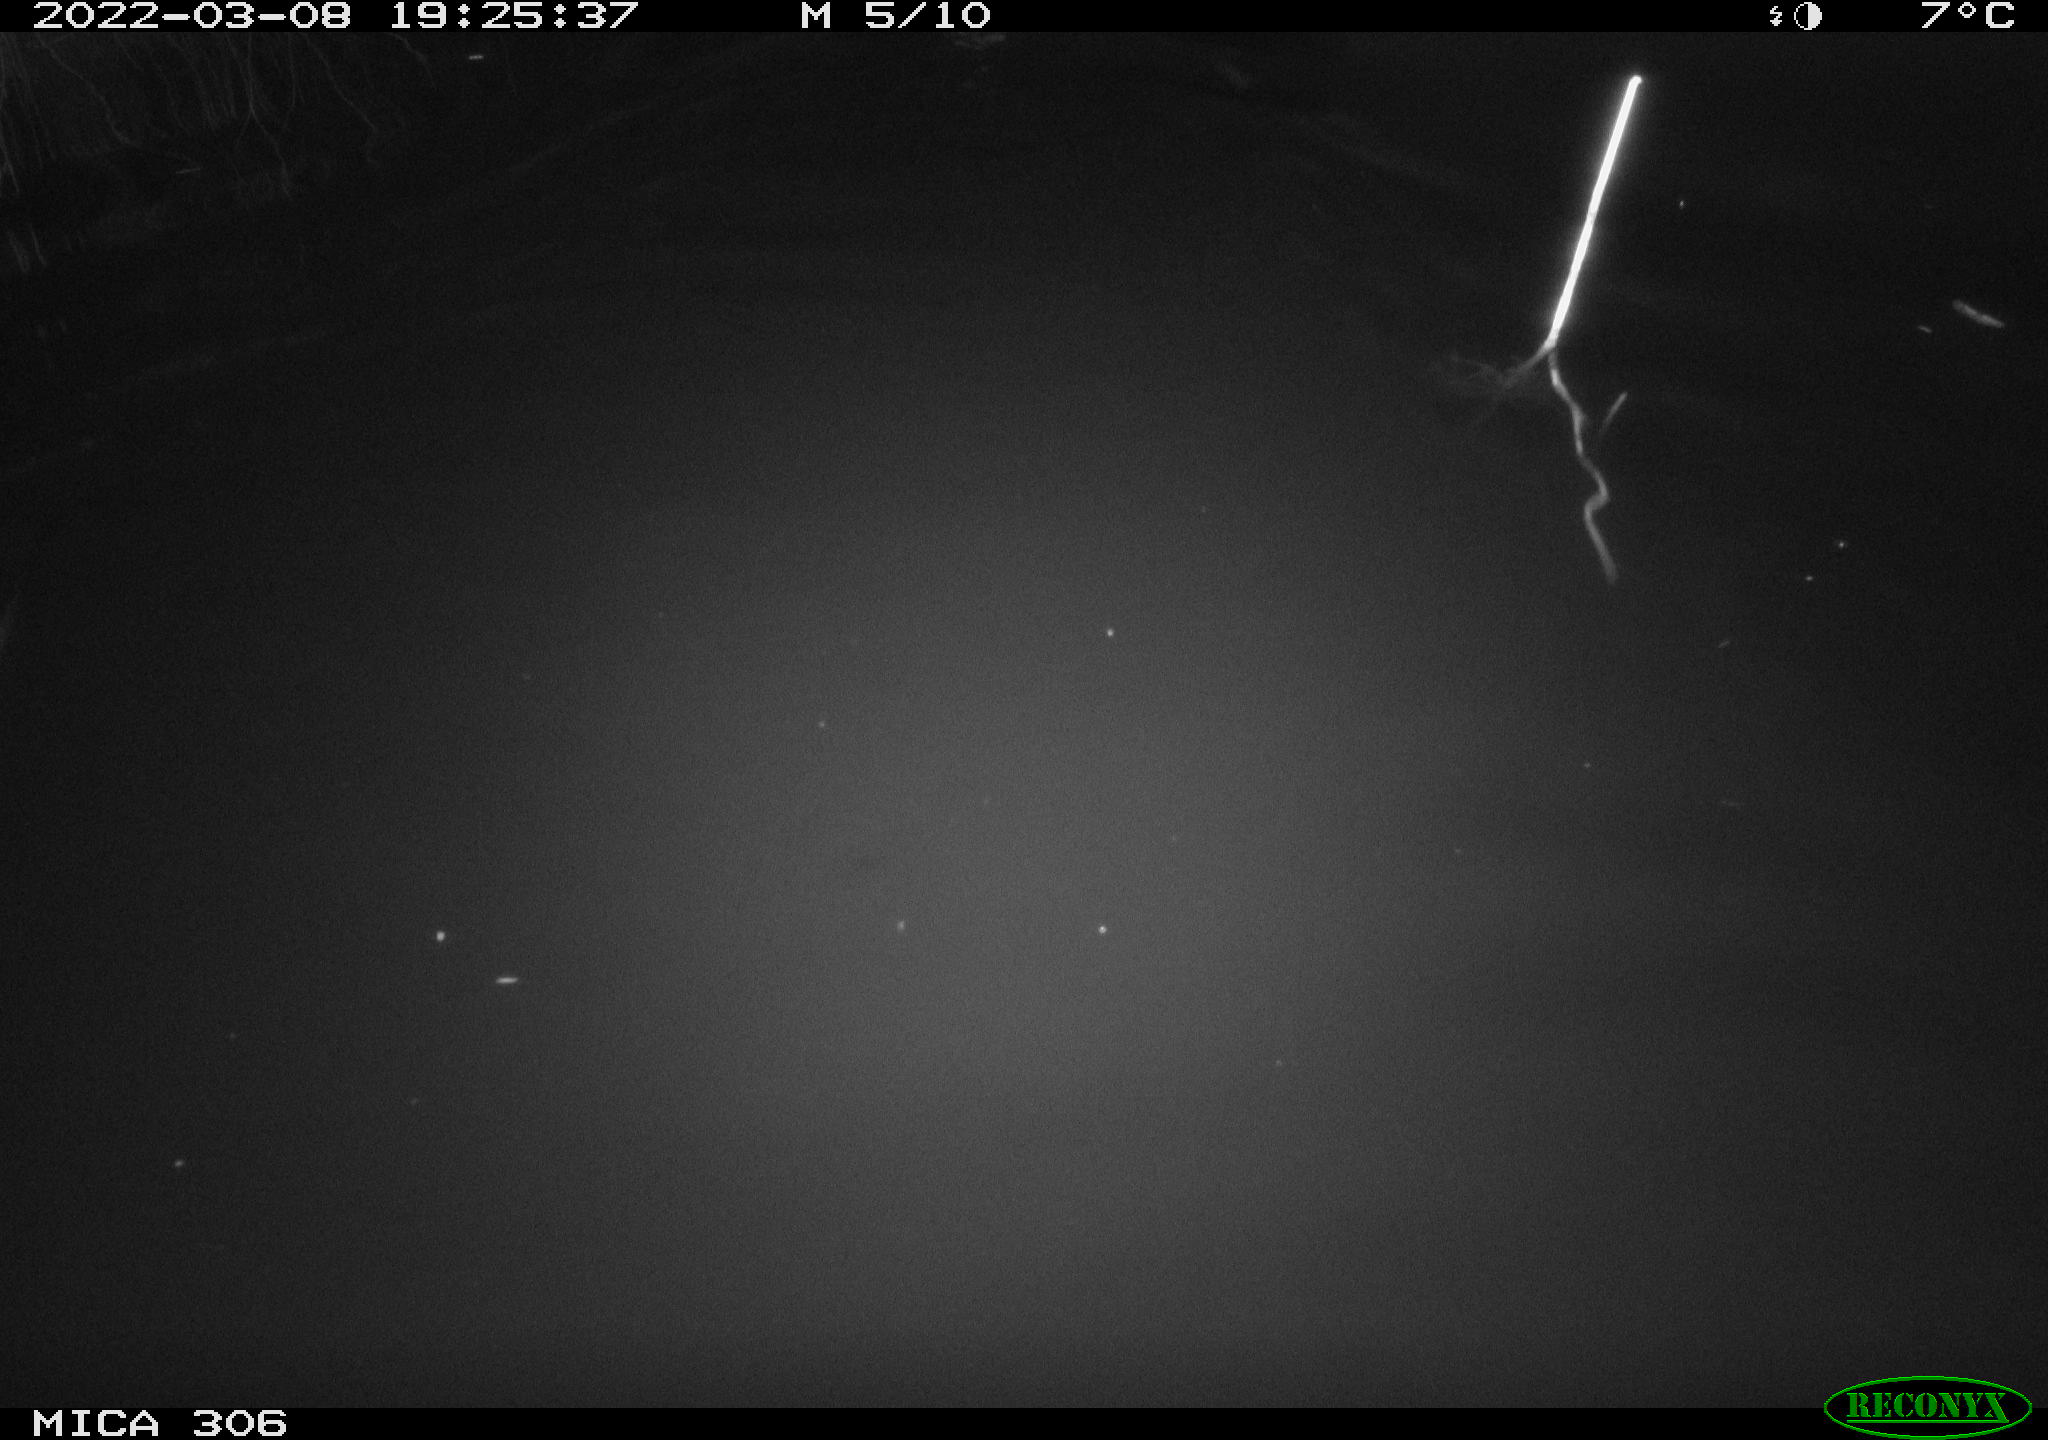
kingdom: Animalia
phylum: Chordata
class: Aves
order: Gruiformes
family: Rallidae
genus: Gallinula
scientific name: Gallinula chloropus
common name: Common moorhen
